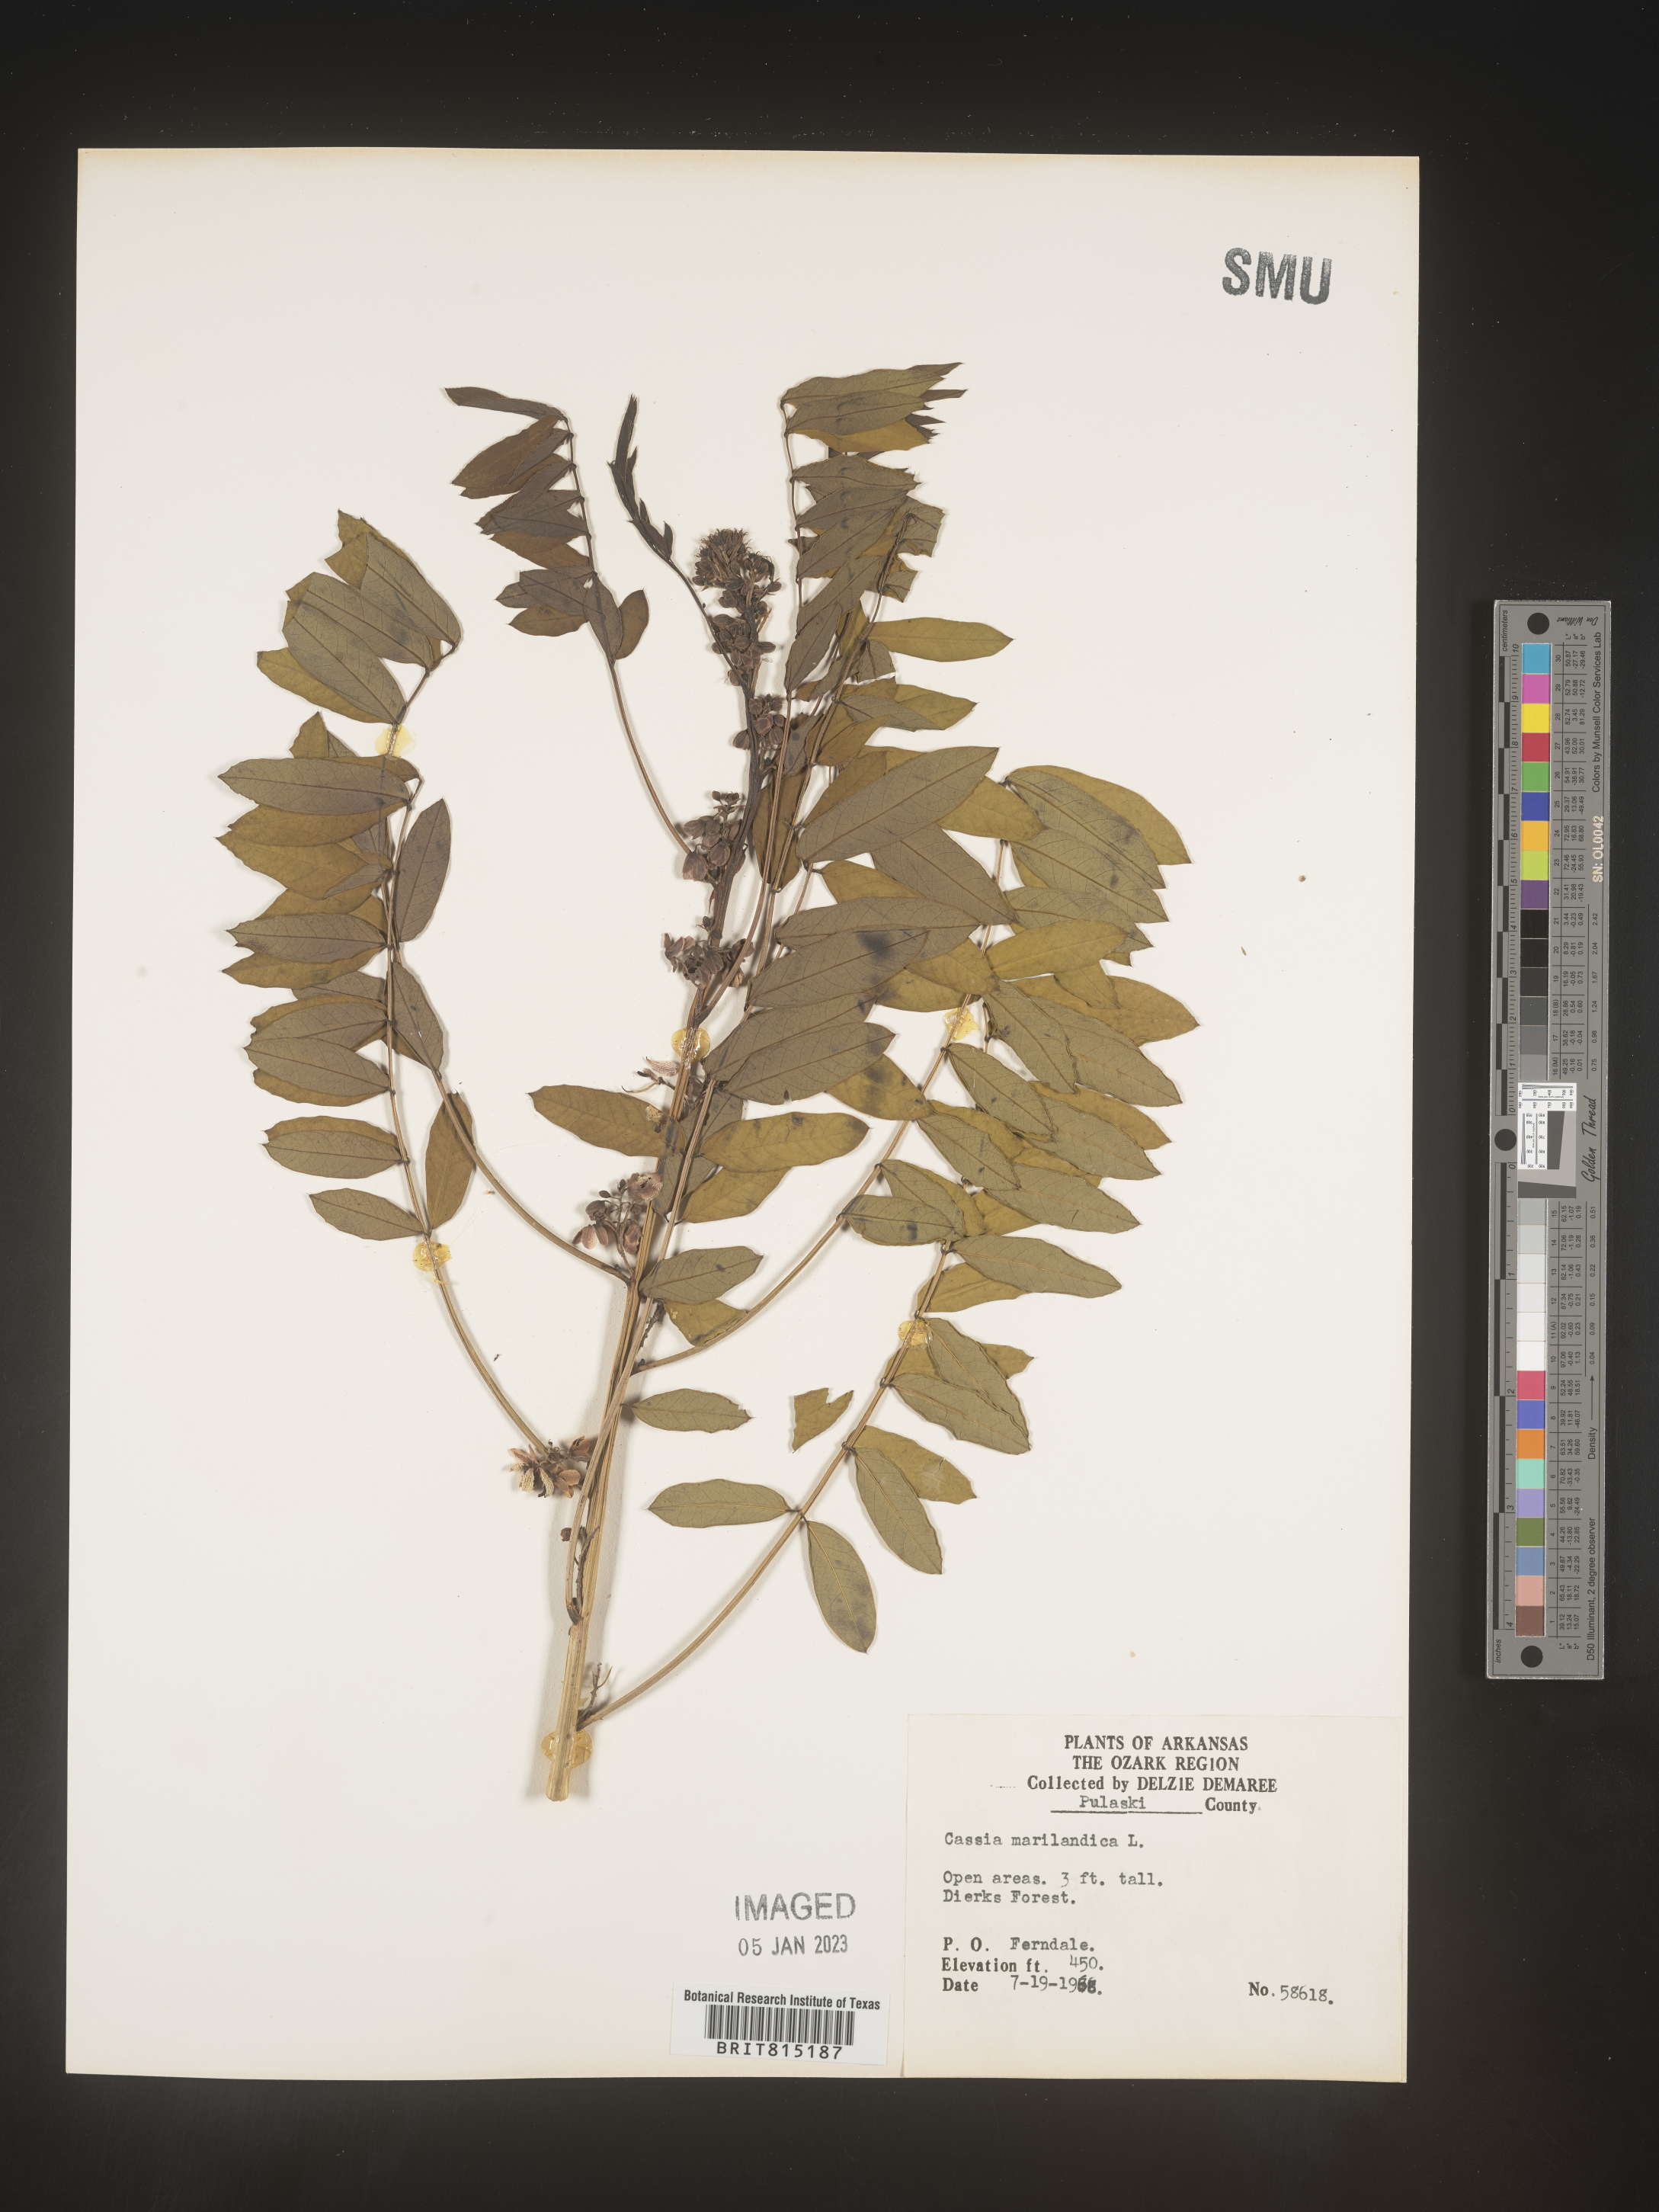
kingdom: Plantae
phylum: Tracheophyta
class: Magnoliopsida
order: Fabales
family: Fabaceae
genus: Senna
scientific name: Senna marilandica
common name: American senna
